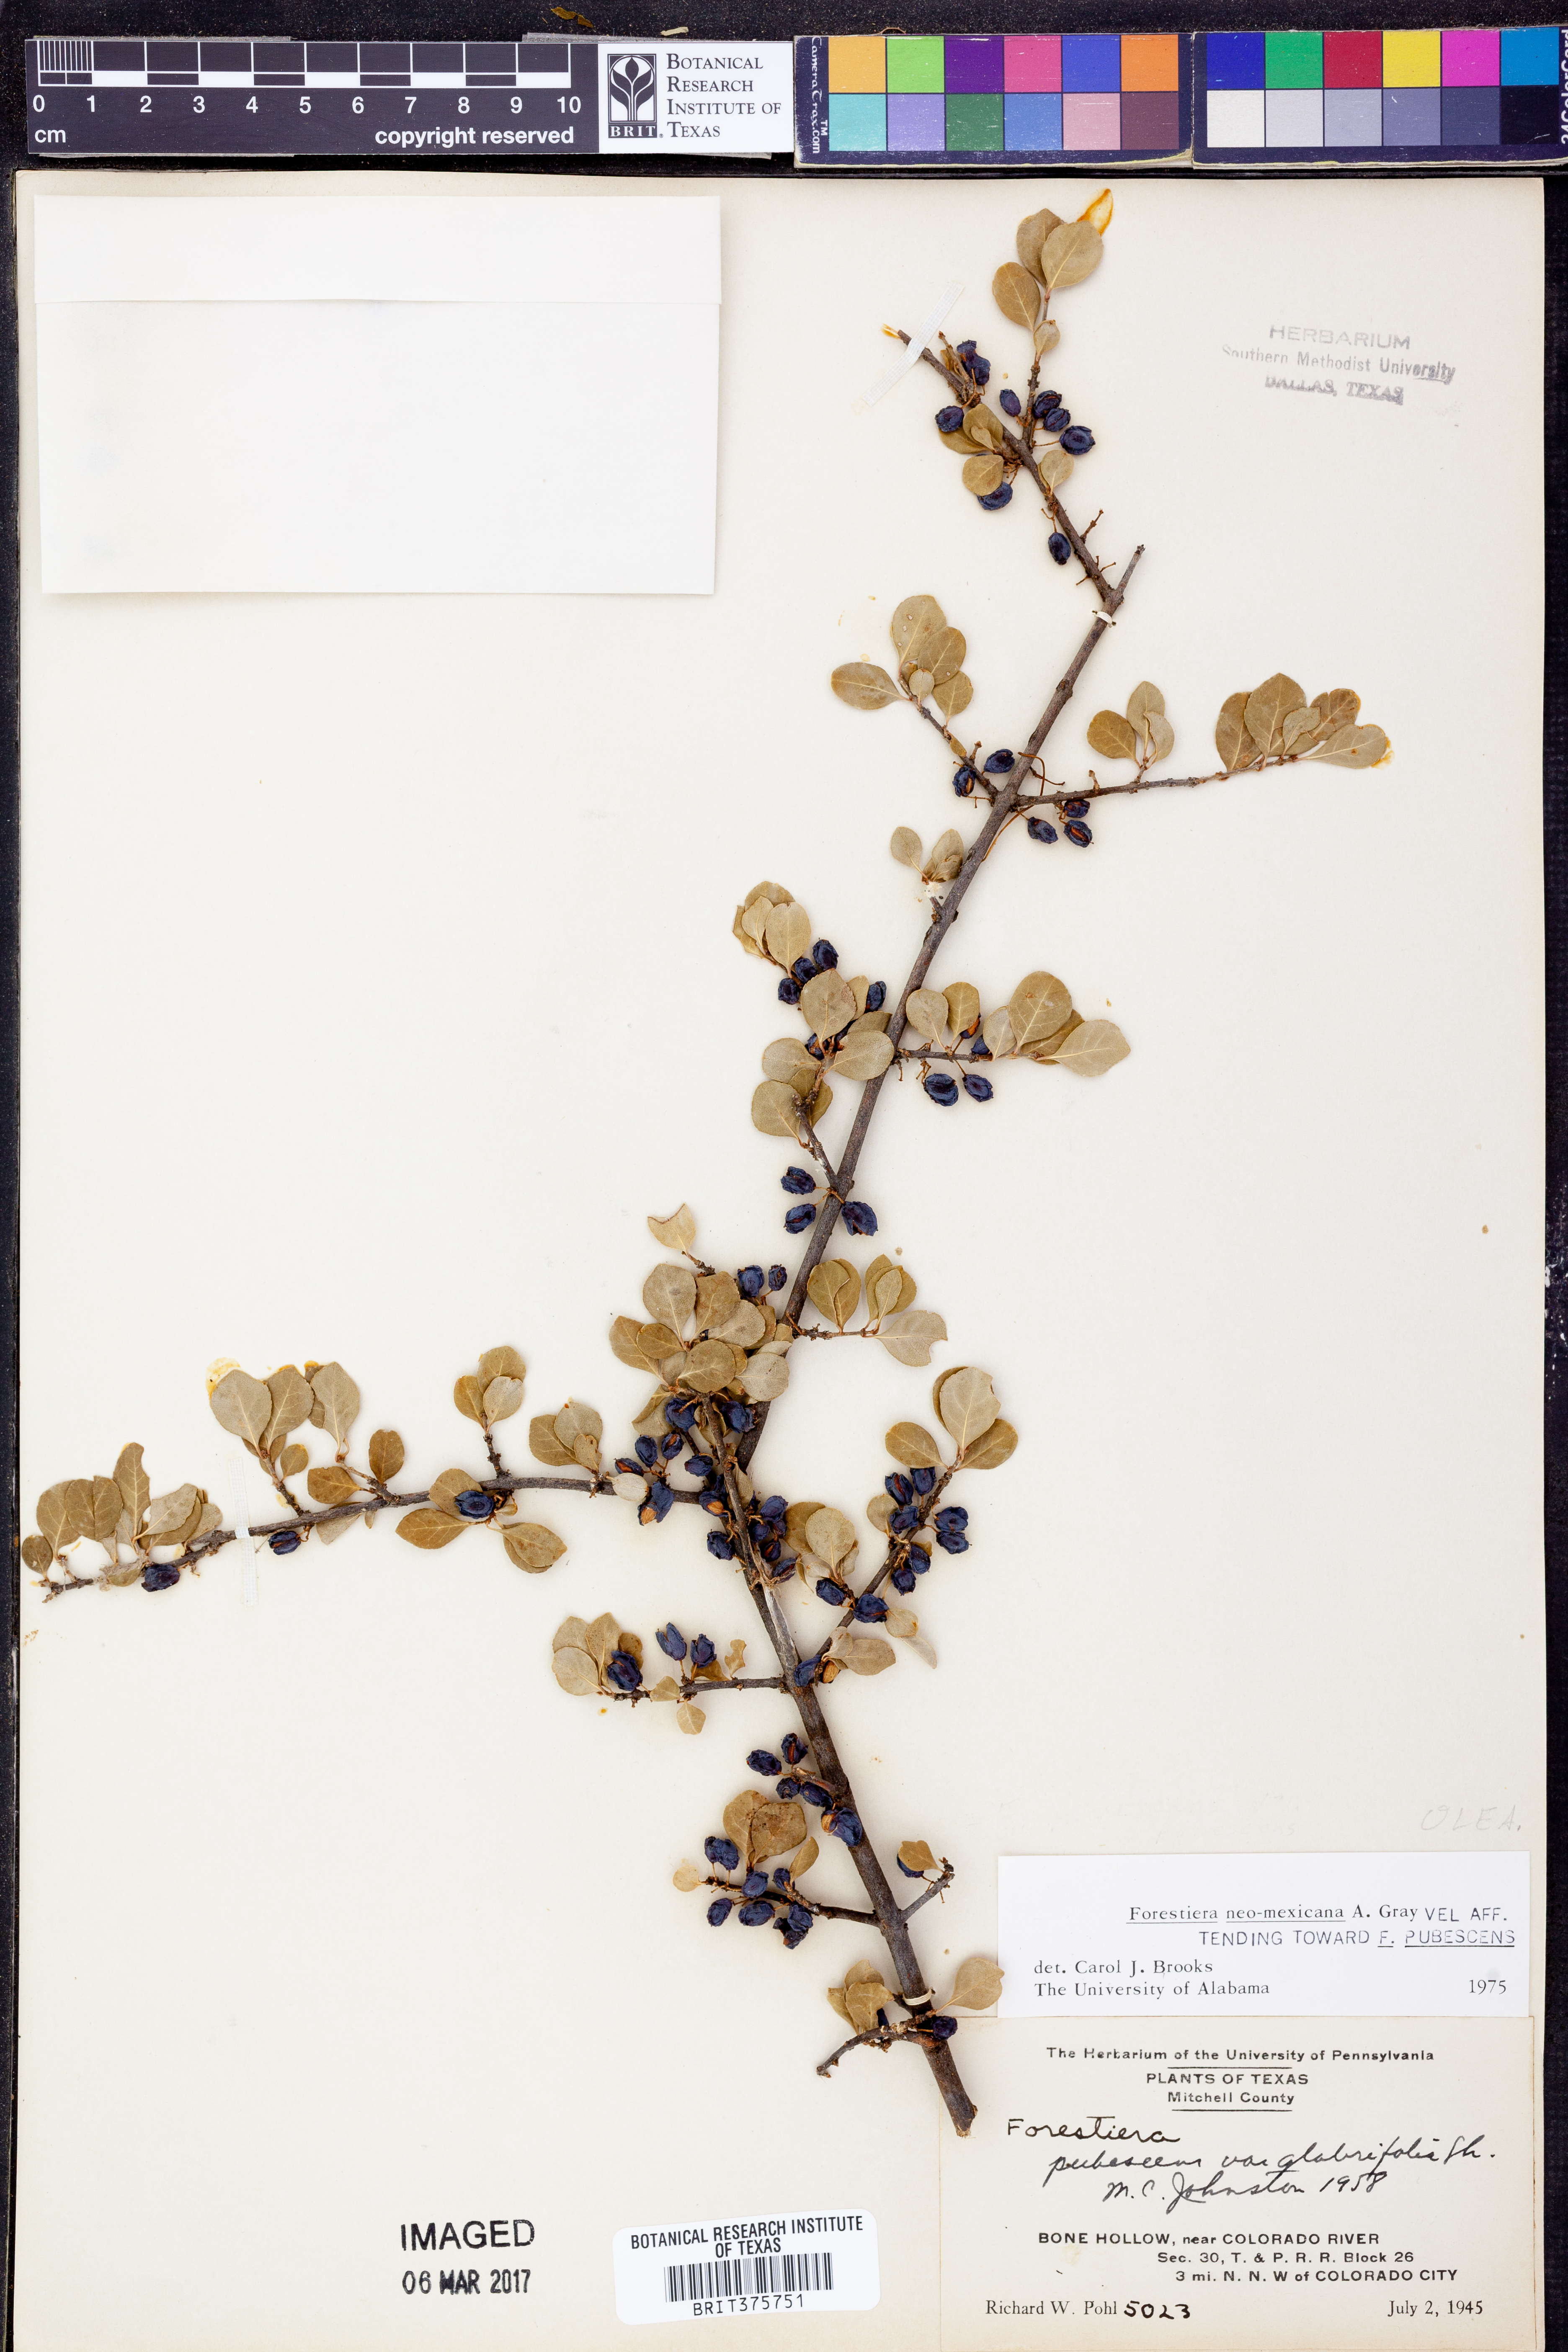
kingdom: Plantae
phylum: Tracheophyta
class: Magnoliopsida
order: Lamiales
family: Oleaceae
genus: Forestiera
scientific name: Forestiera pubescens
